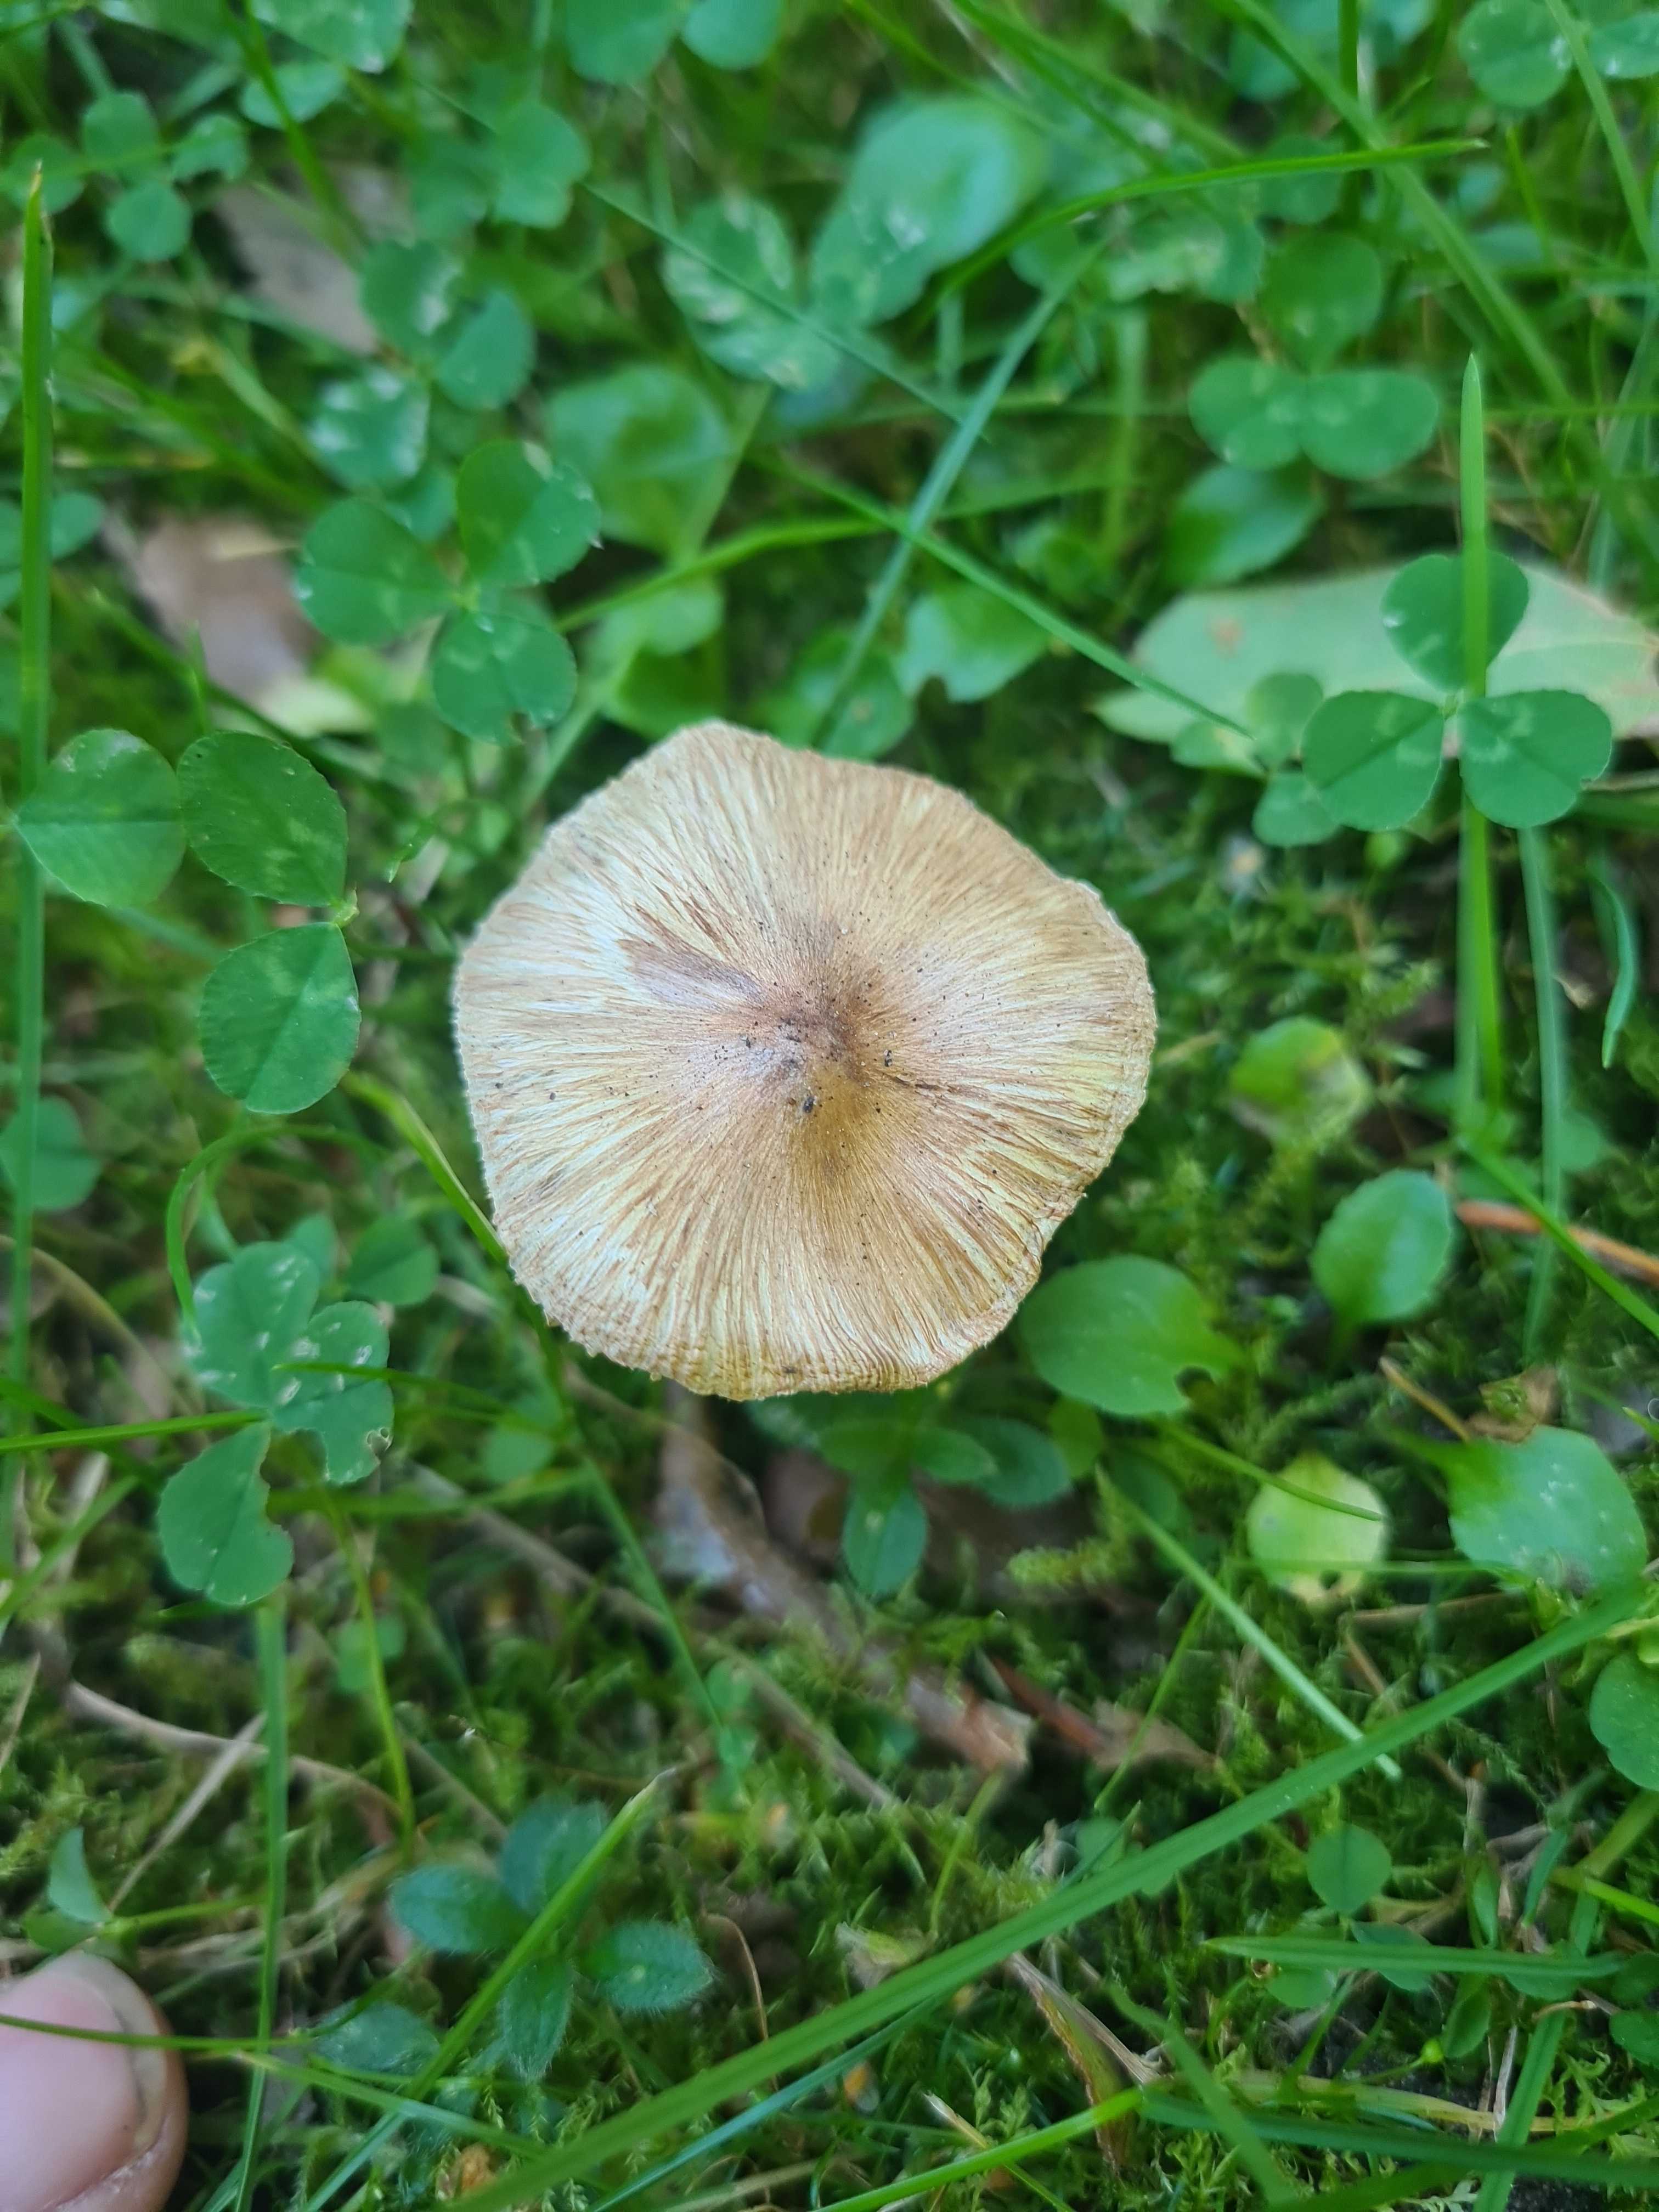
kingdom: Fungi
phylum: Basidiomycota
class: Agaricomycetes
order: Agaricales
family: Inocybaceae
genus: Pseudosperma
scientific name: Pseudosperma
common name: trævlhat
